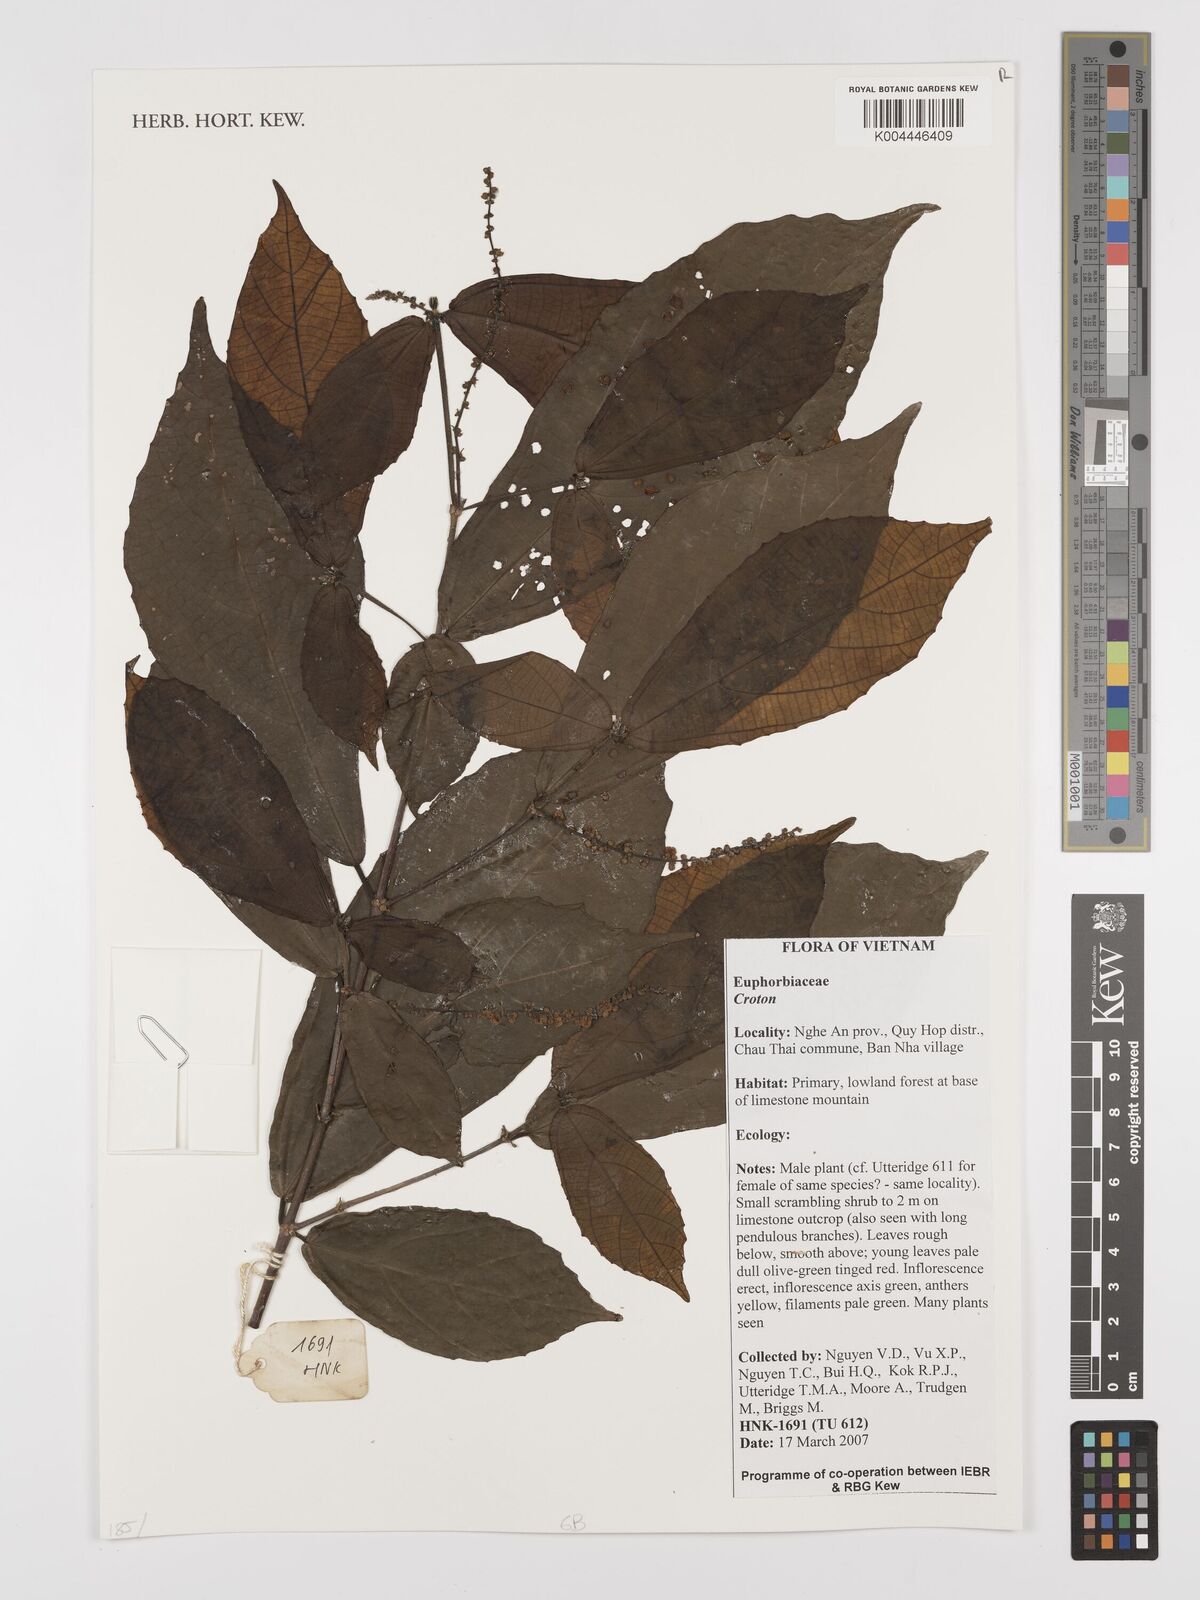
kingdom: Plantae
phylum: Tracheophyta
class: Magnoliopsida
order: Malpighiales
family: Euphorbiaceae
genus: Croton
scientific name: Croton
